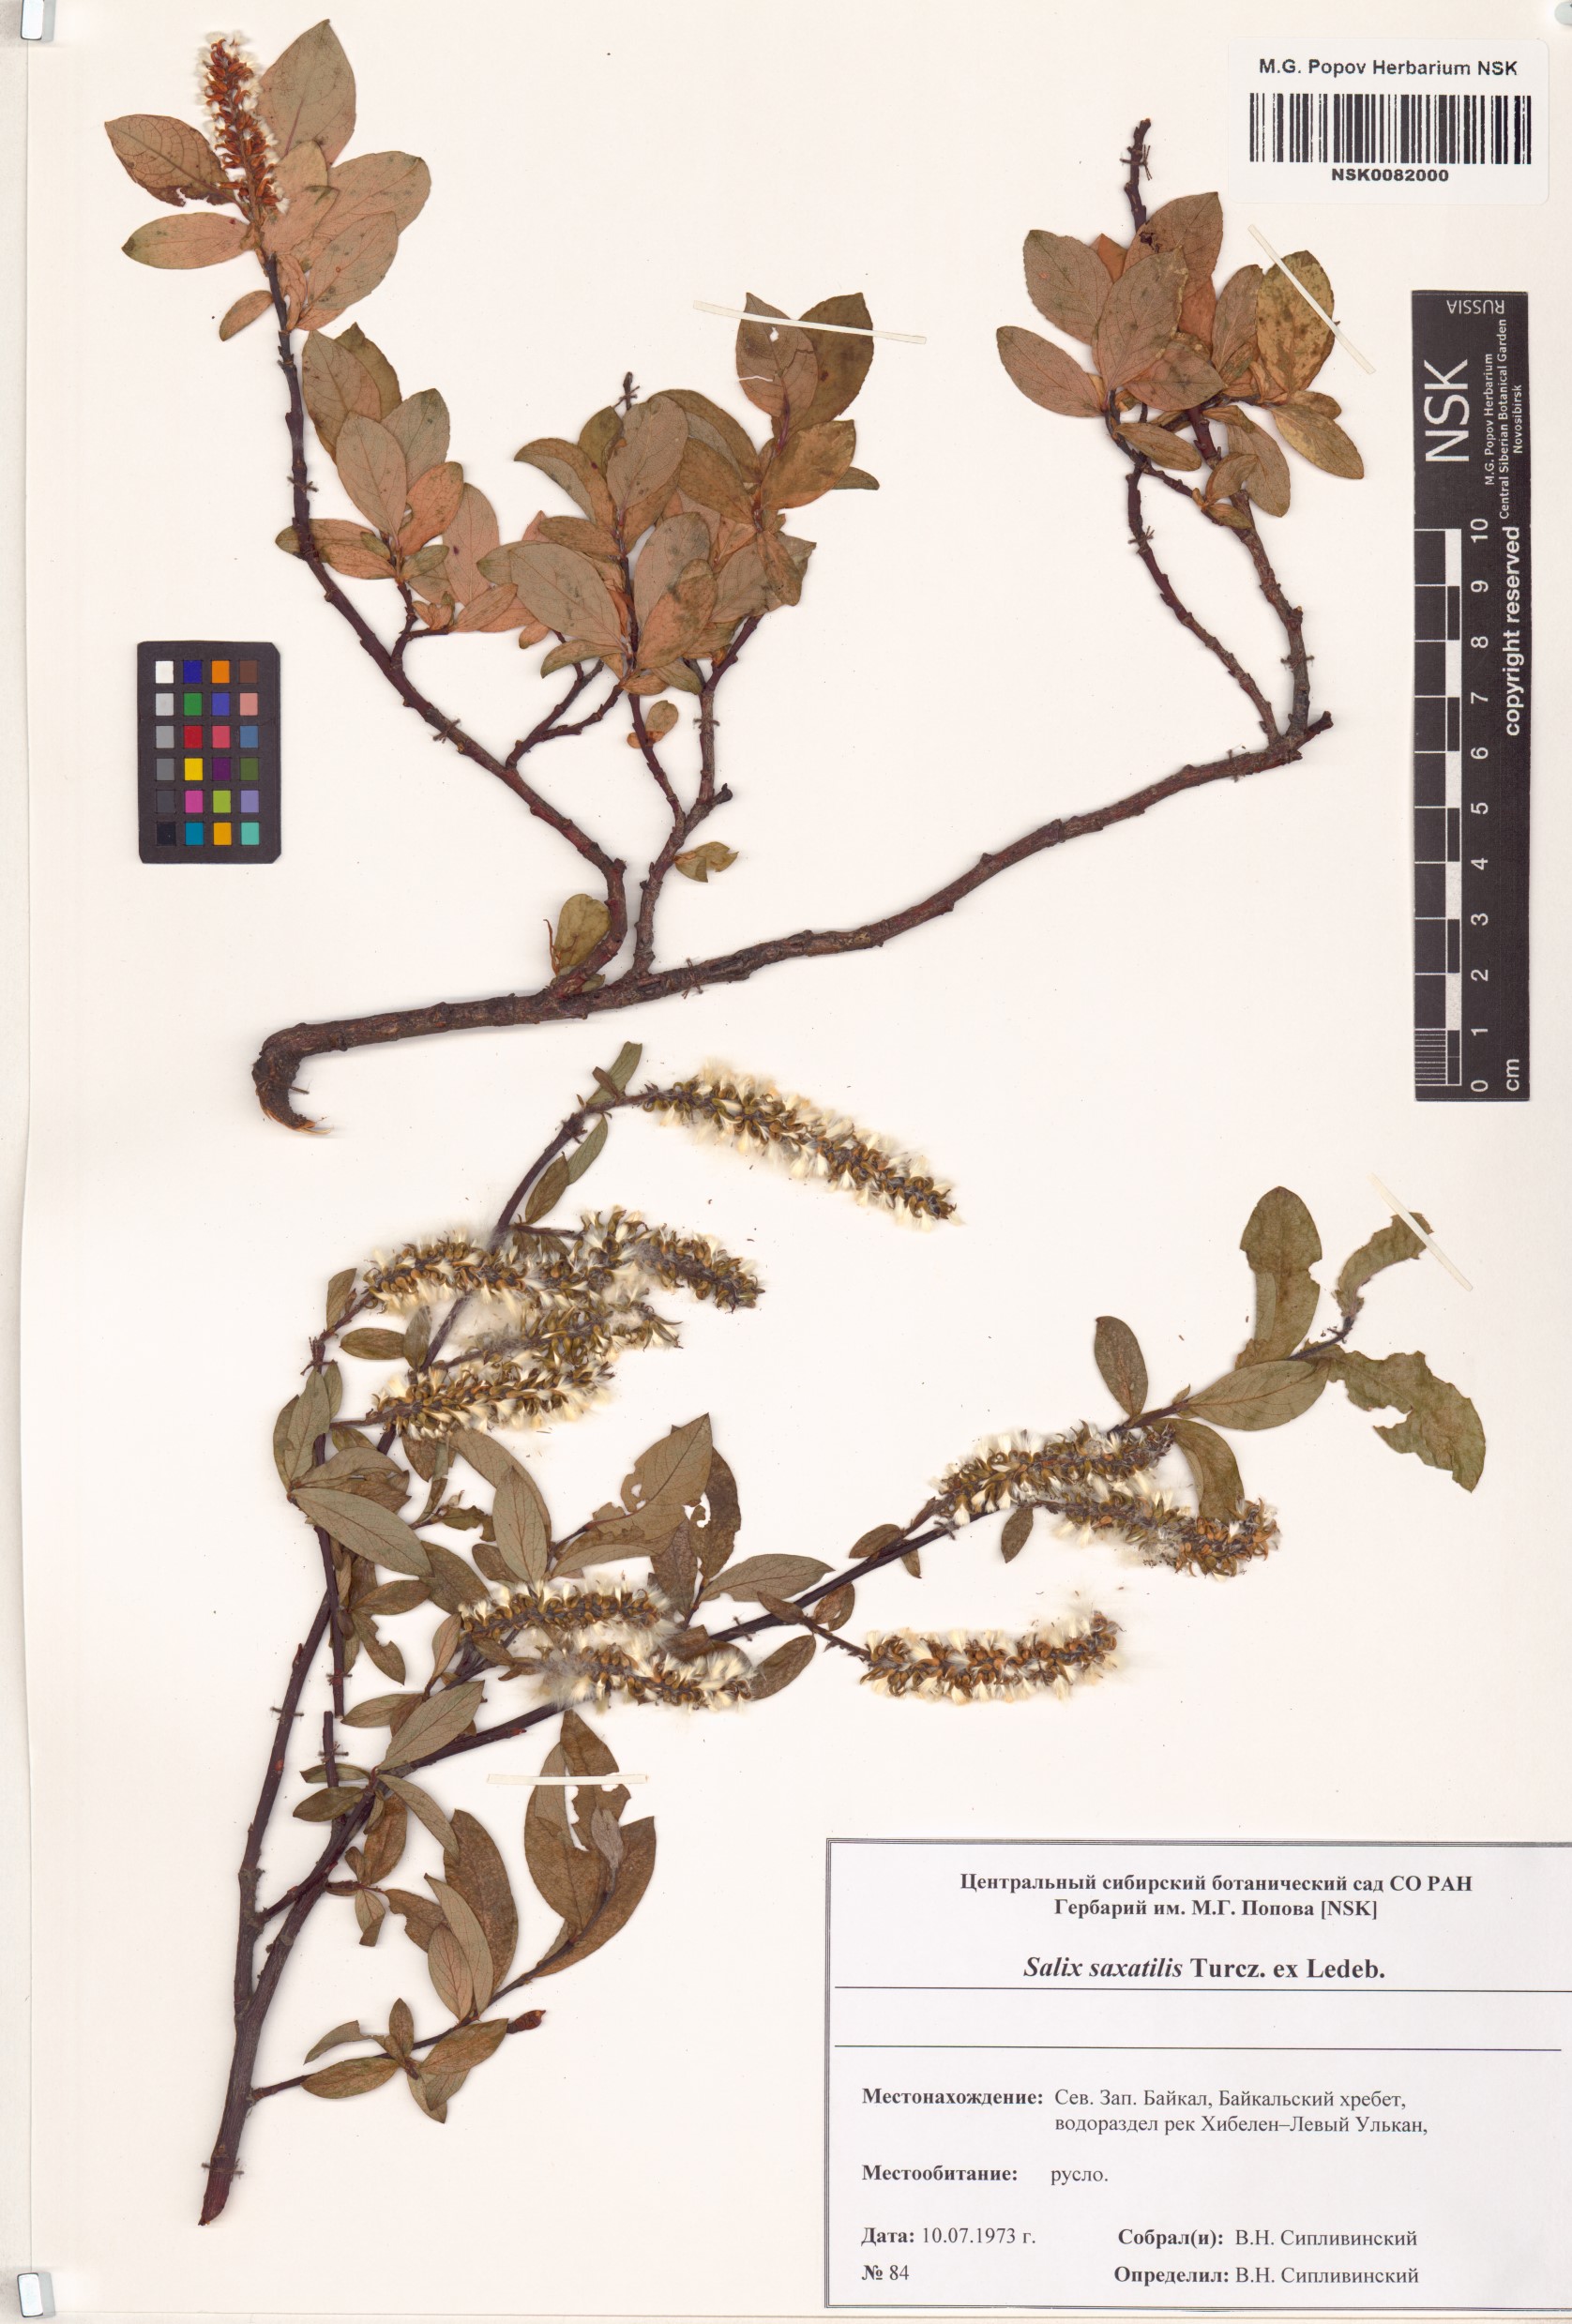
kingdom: Plantae
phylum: Tracheophyta
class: Magnoliopsida
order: Malpighiales
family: Salicaceae
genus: Salix
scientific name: Salix saxatilis
